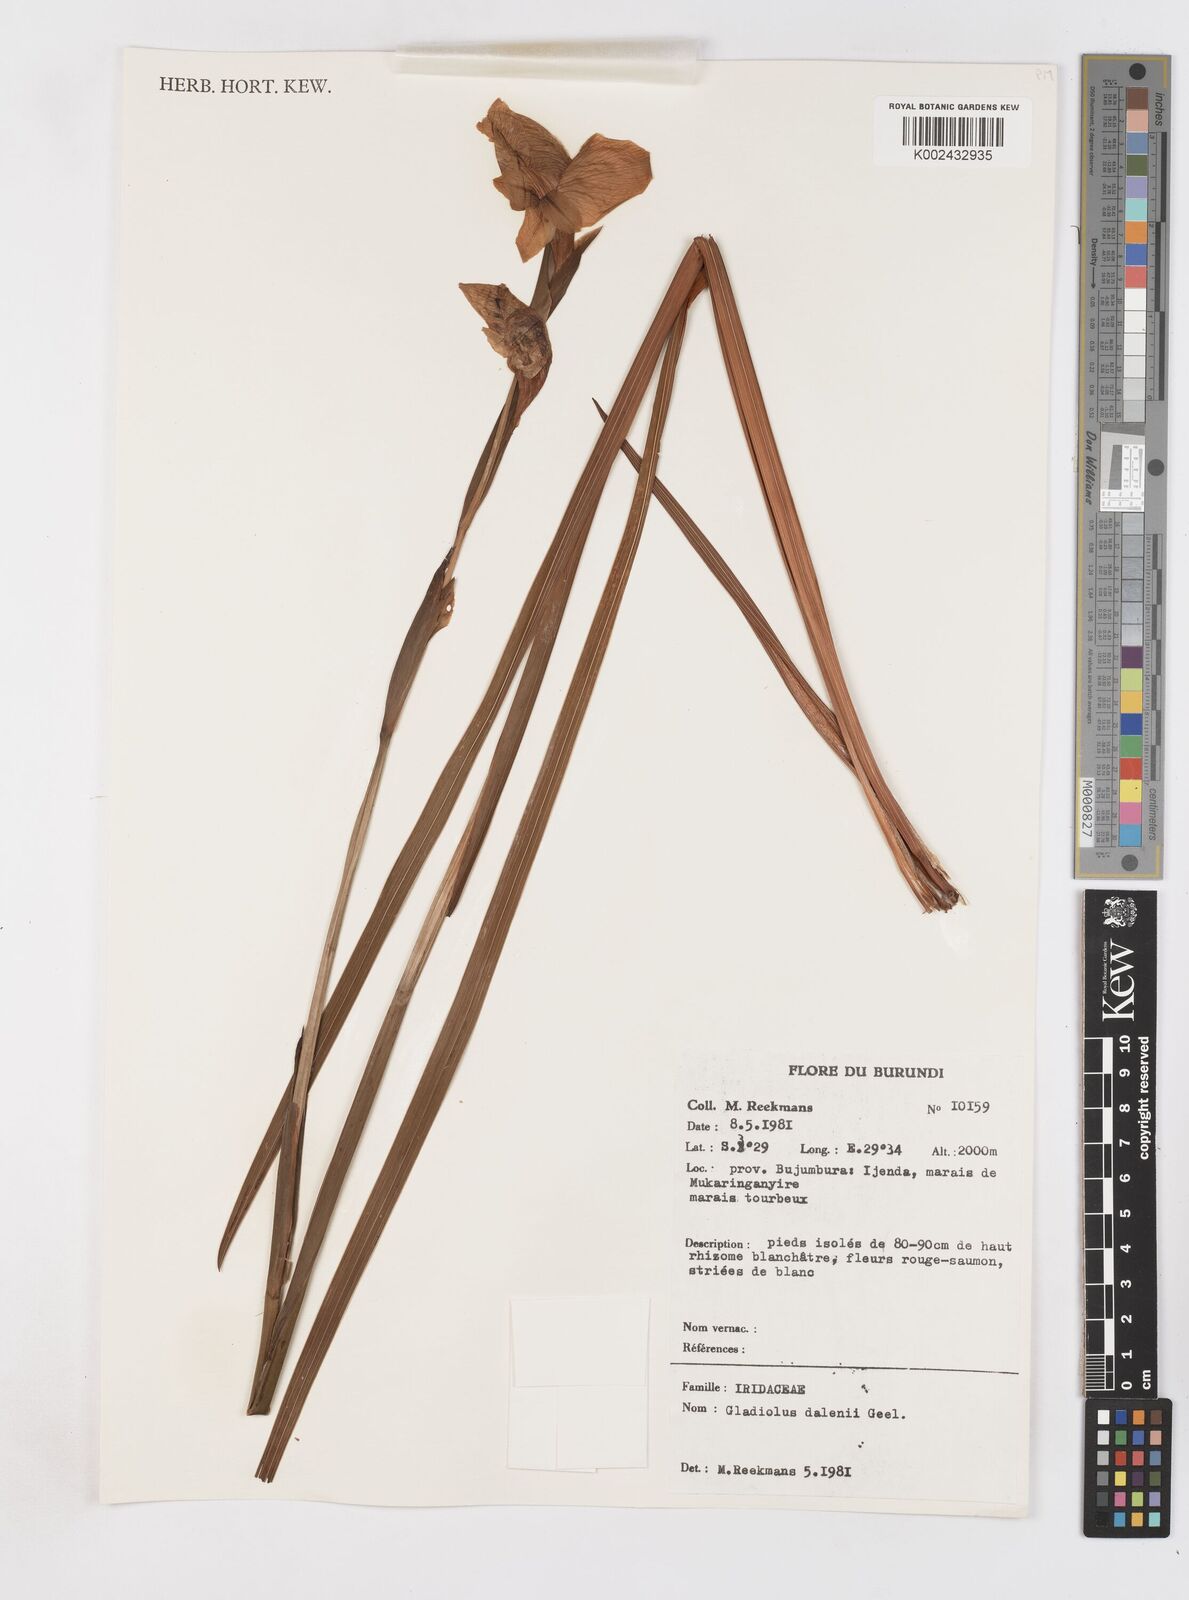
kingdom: Plantae
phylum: Tracheophyta
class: Liliopsida
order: Asparagales
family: Iridaceae
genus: Gladiolus
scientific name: Gladiolus dalenii
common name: Cornflag
